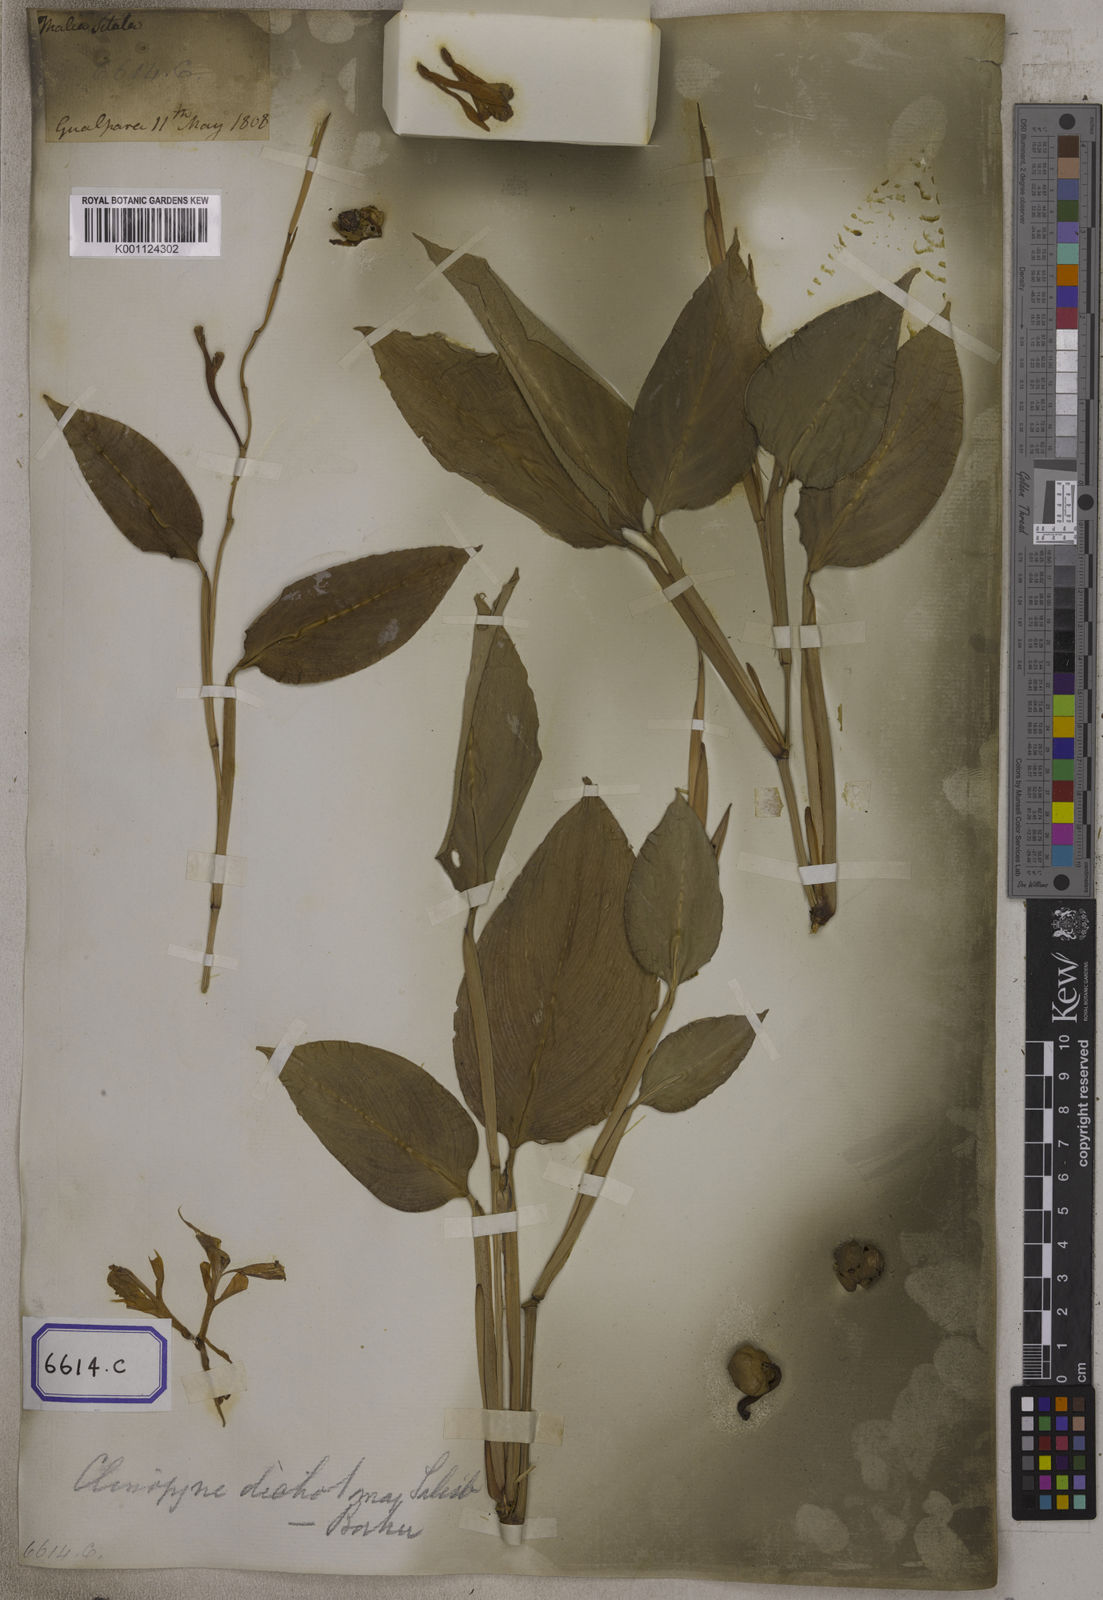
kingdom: Plantae
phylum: Tracheophyta
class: Liliopsida
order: Zingiberales
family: Marantaceae
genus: Maranta
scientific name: Maranta
